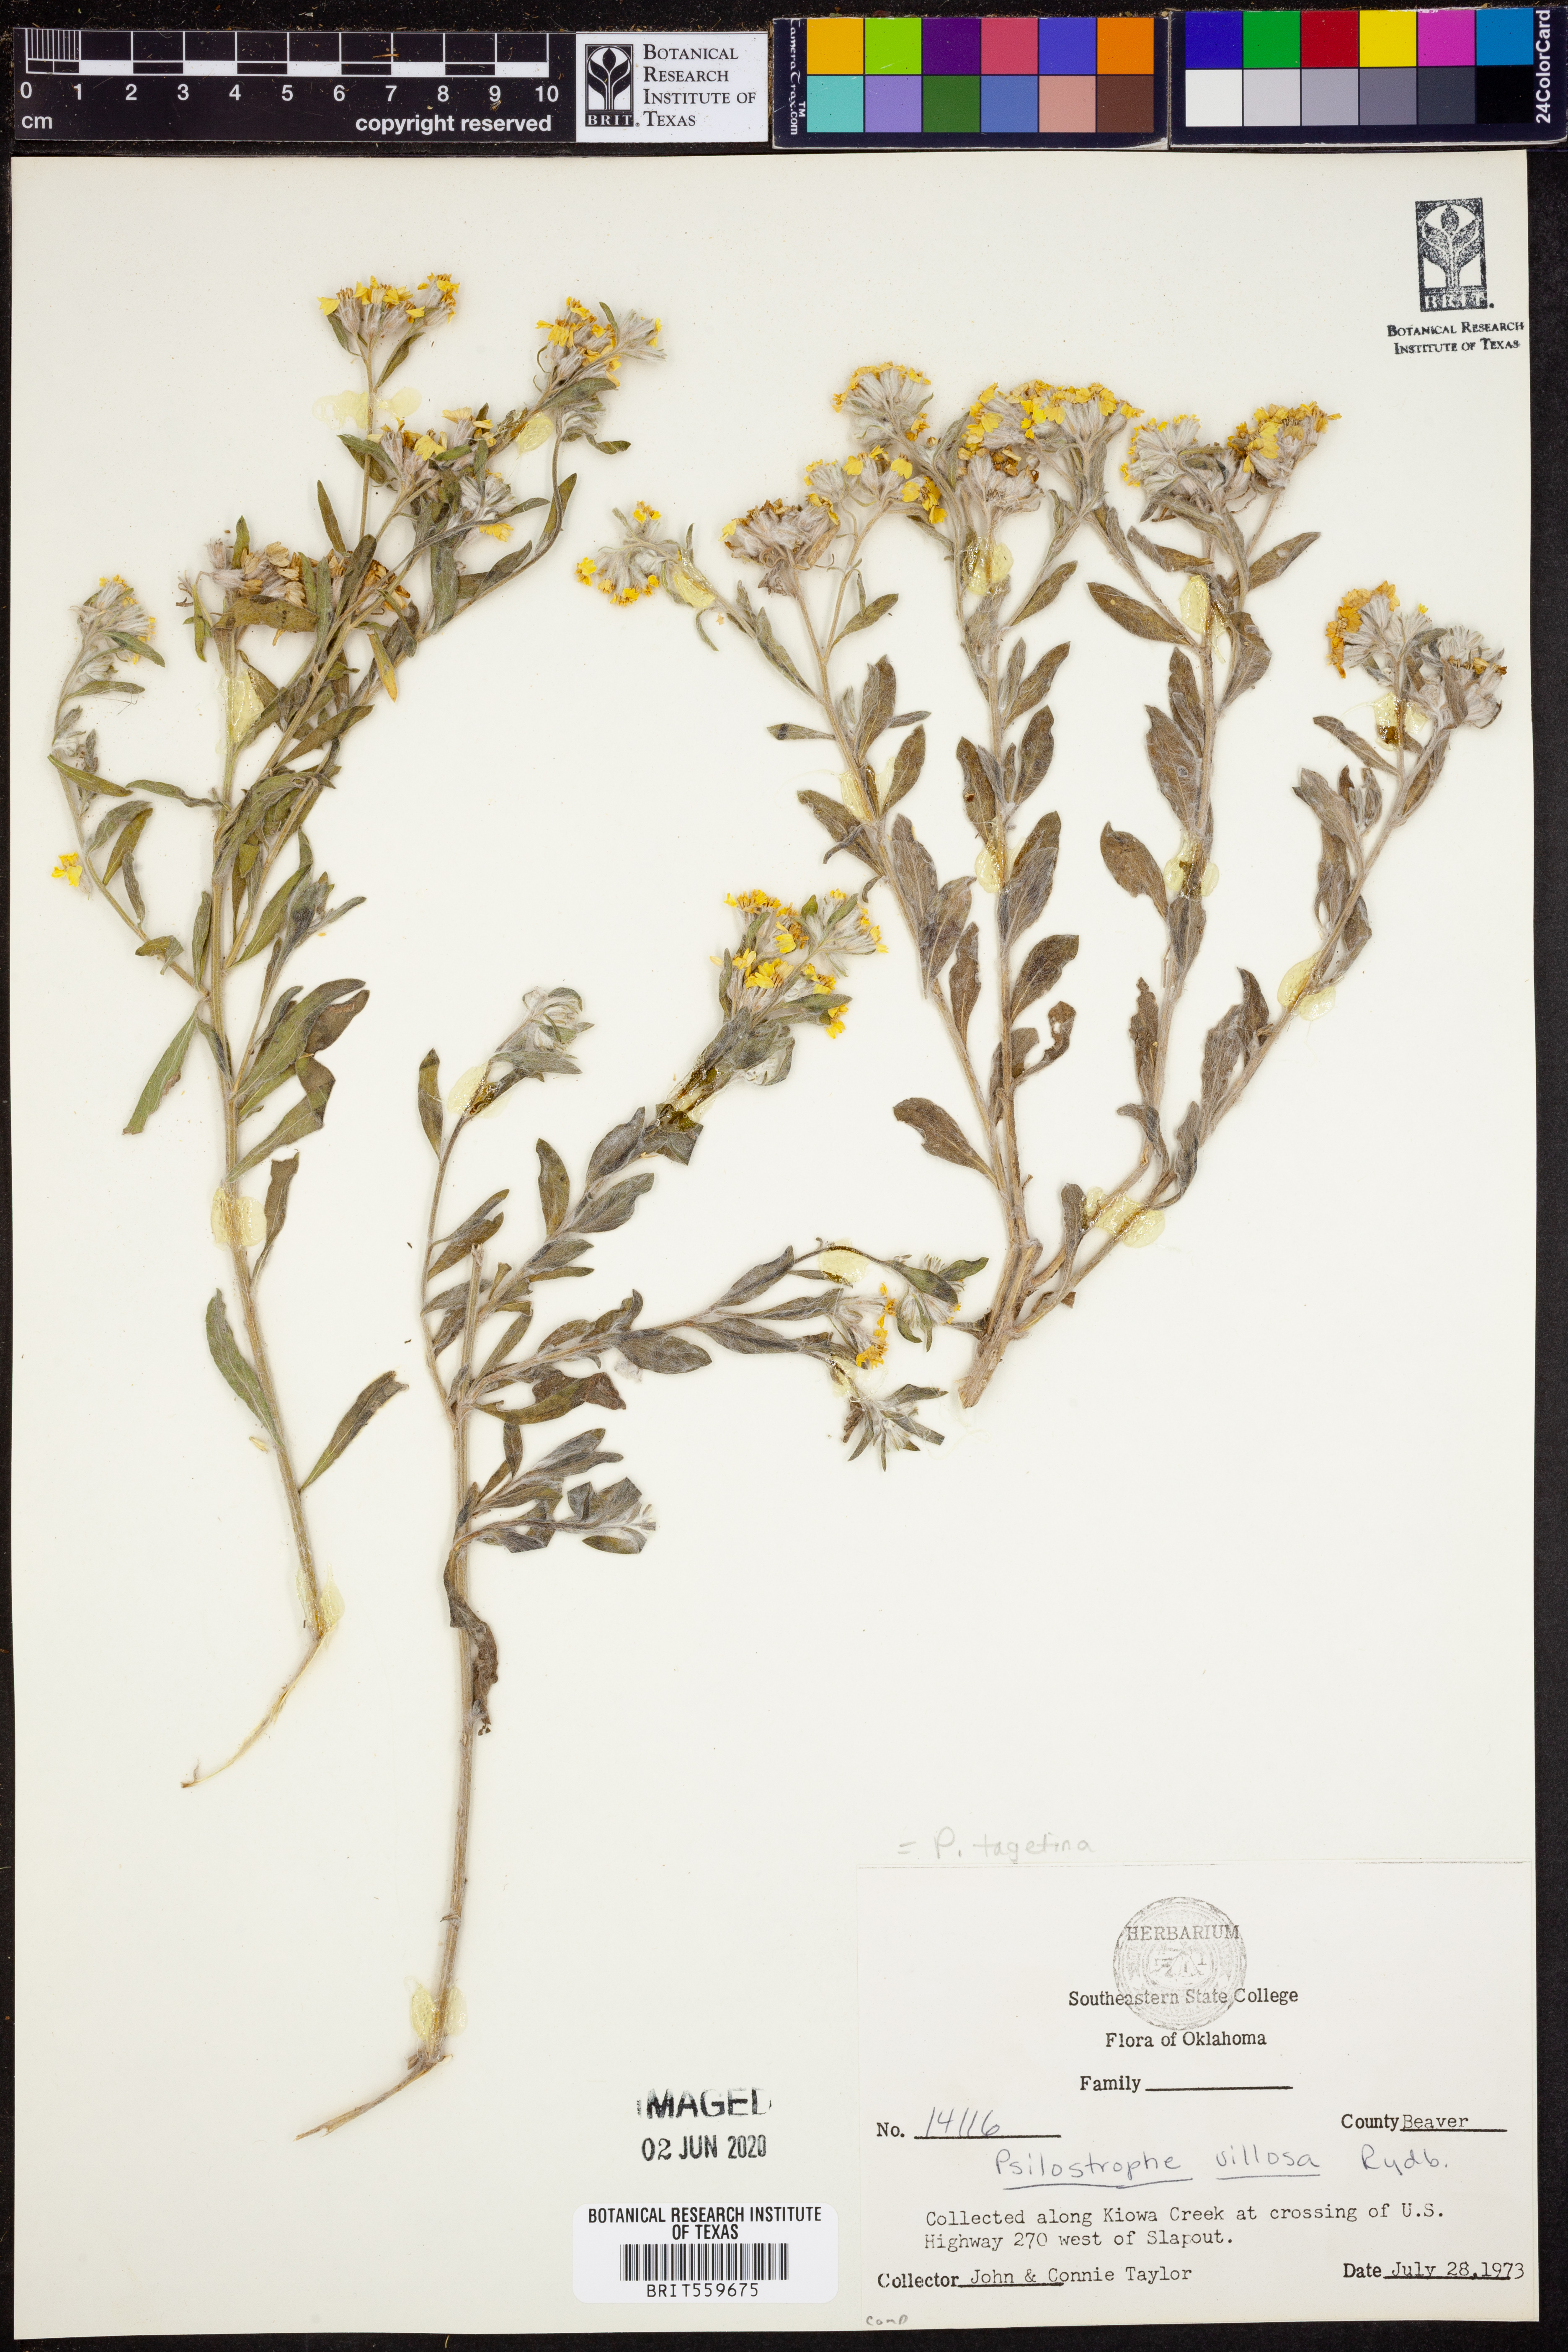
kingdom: Plantae
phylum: Tracheophyta
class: Magnoliopsida
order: Asterales
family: Asteraceae
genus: Psilostrophe
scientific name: Psilostrophe tagetina
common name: Marigold paper-flower
